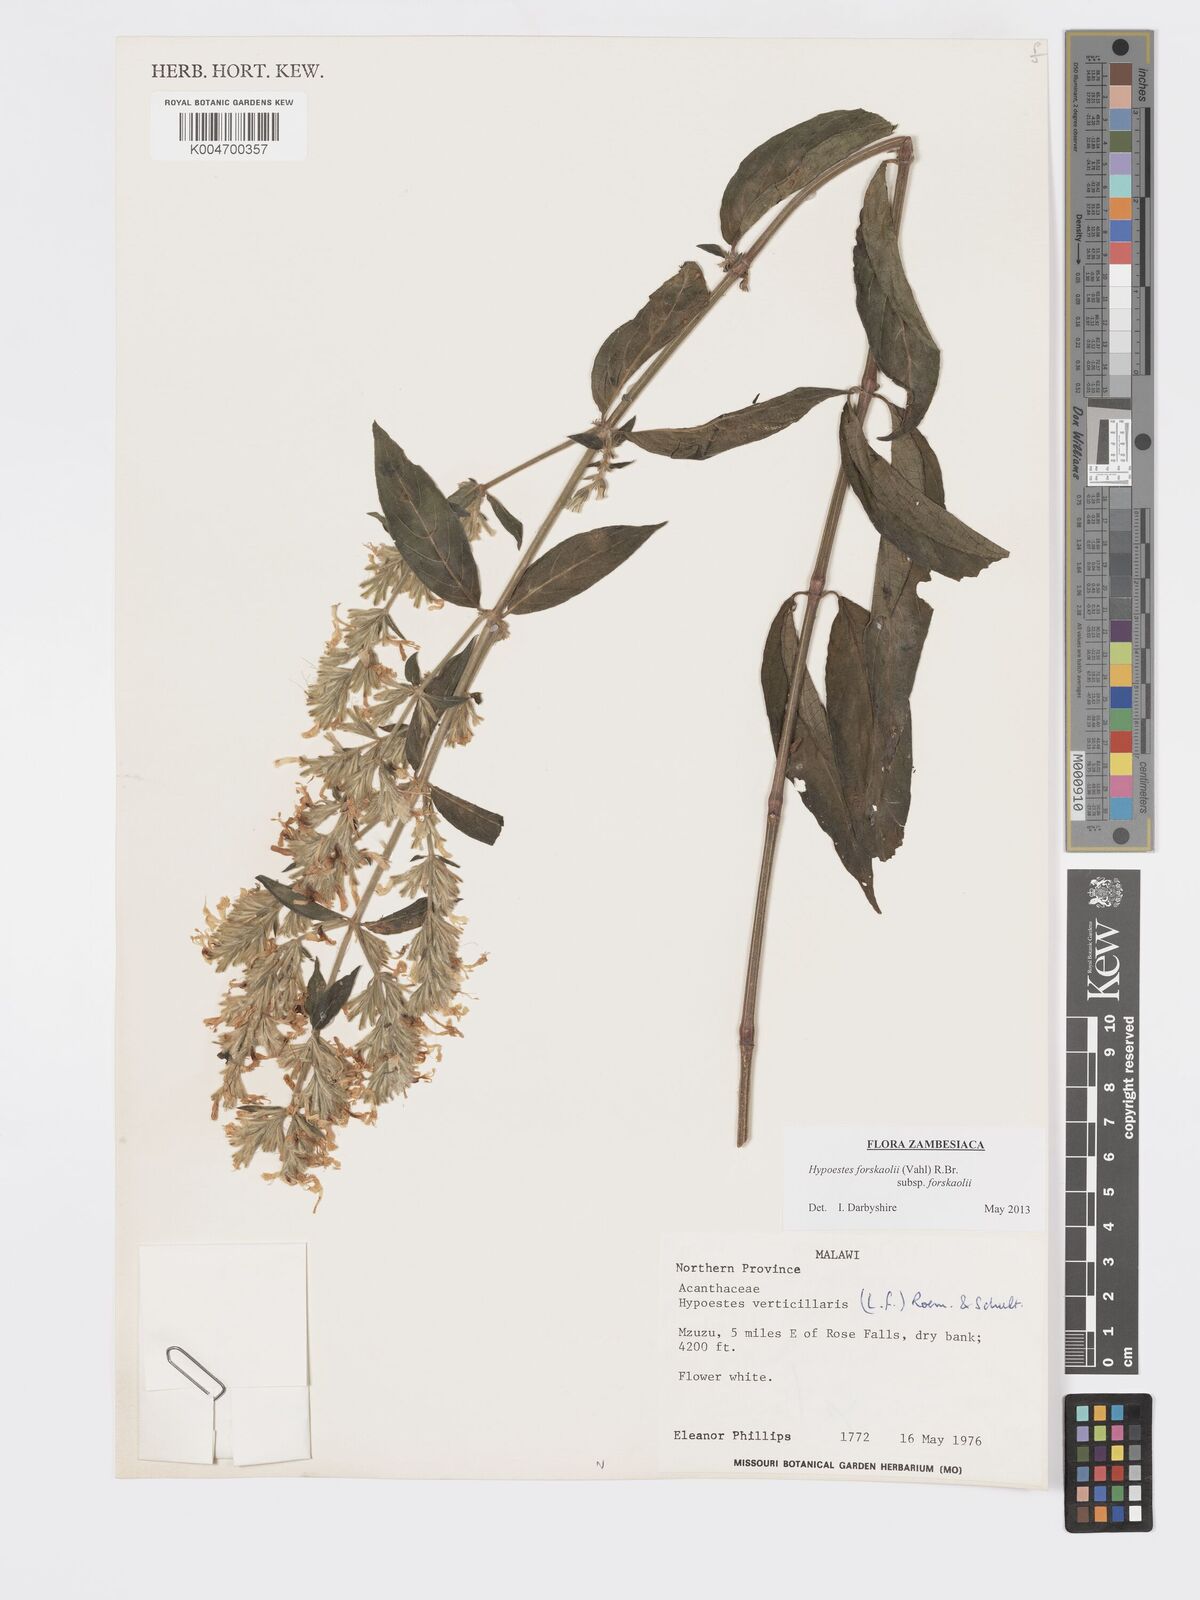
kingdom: Plantae
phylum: Tracheophyta
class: Magnoliopsida
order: Lamiales
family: Acanthaceae
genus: Hypoestes
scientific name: Hypoestes forskaolii
